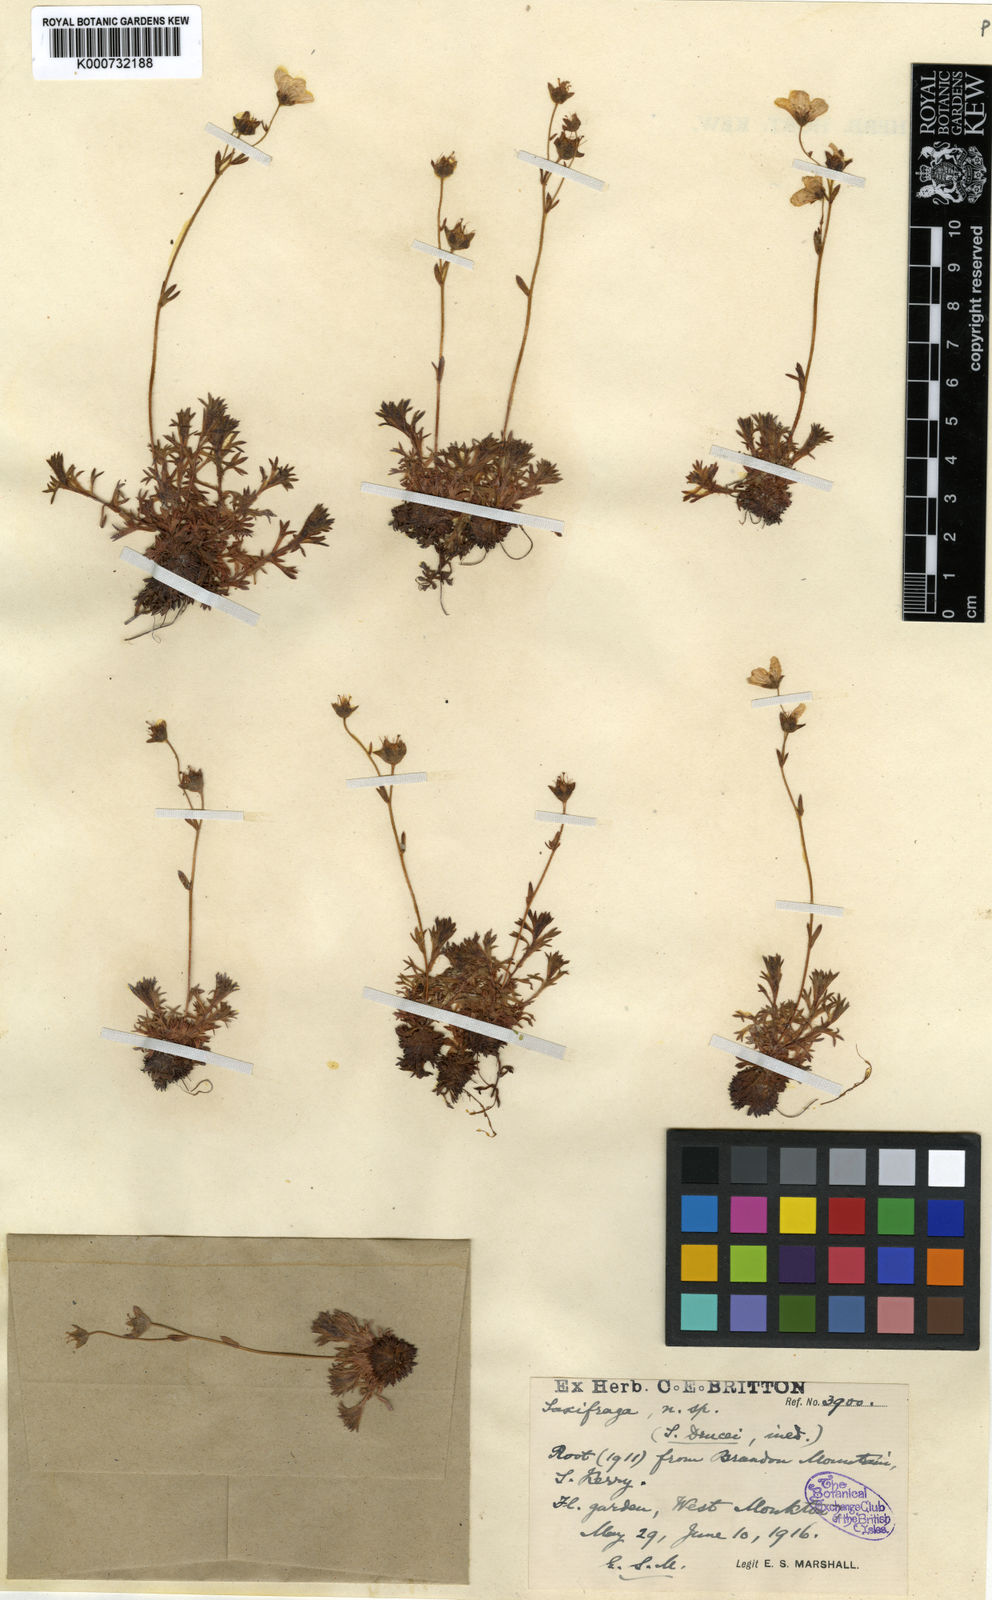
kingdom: Plantae
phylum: Tracheophyta
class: Magnoliopsida
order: Saxifragales
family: Saxifragaceae
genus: Saxifraga
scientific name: Saxifraga cespitosa
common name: Tufted saxifrage
